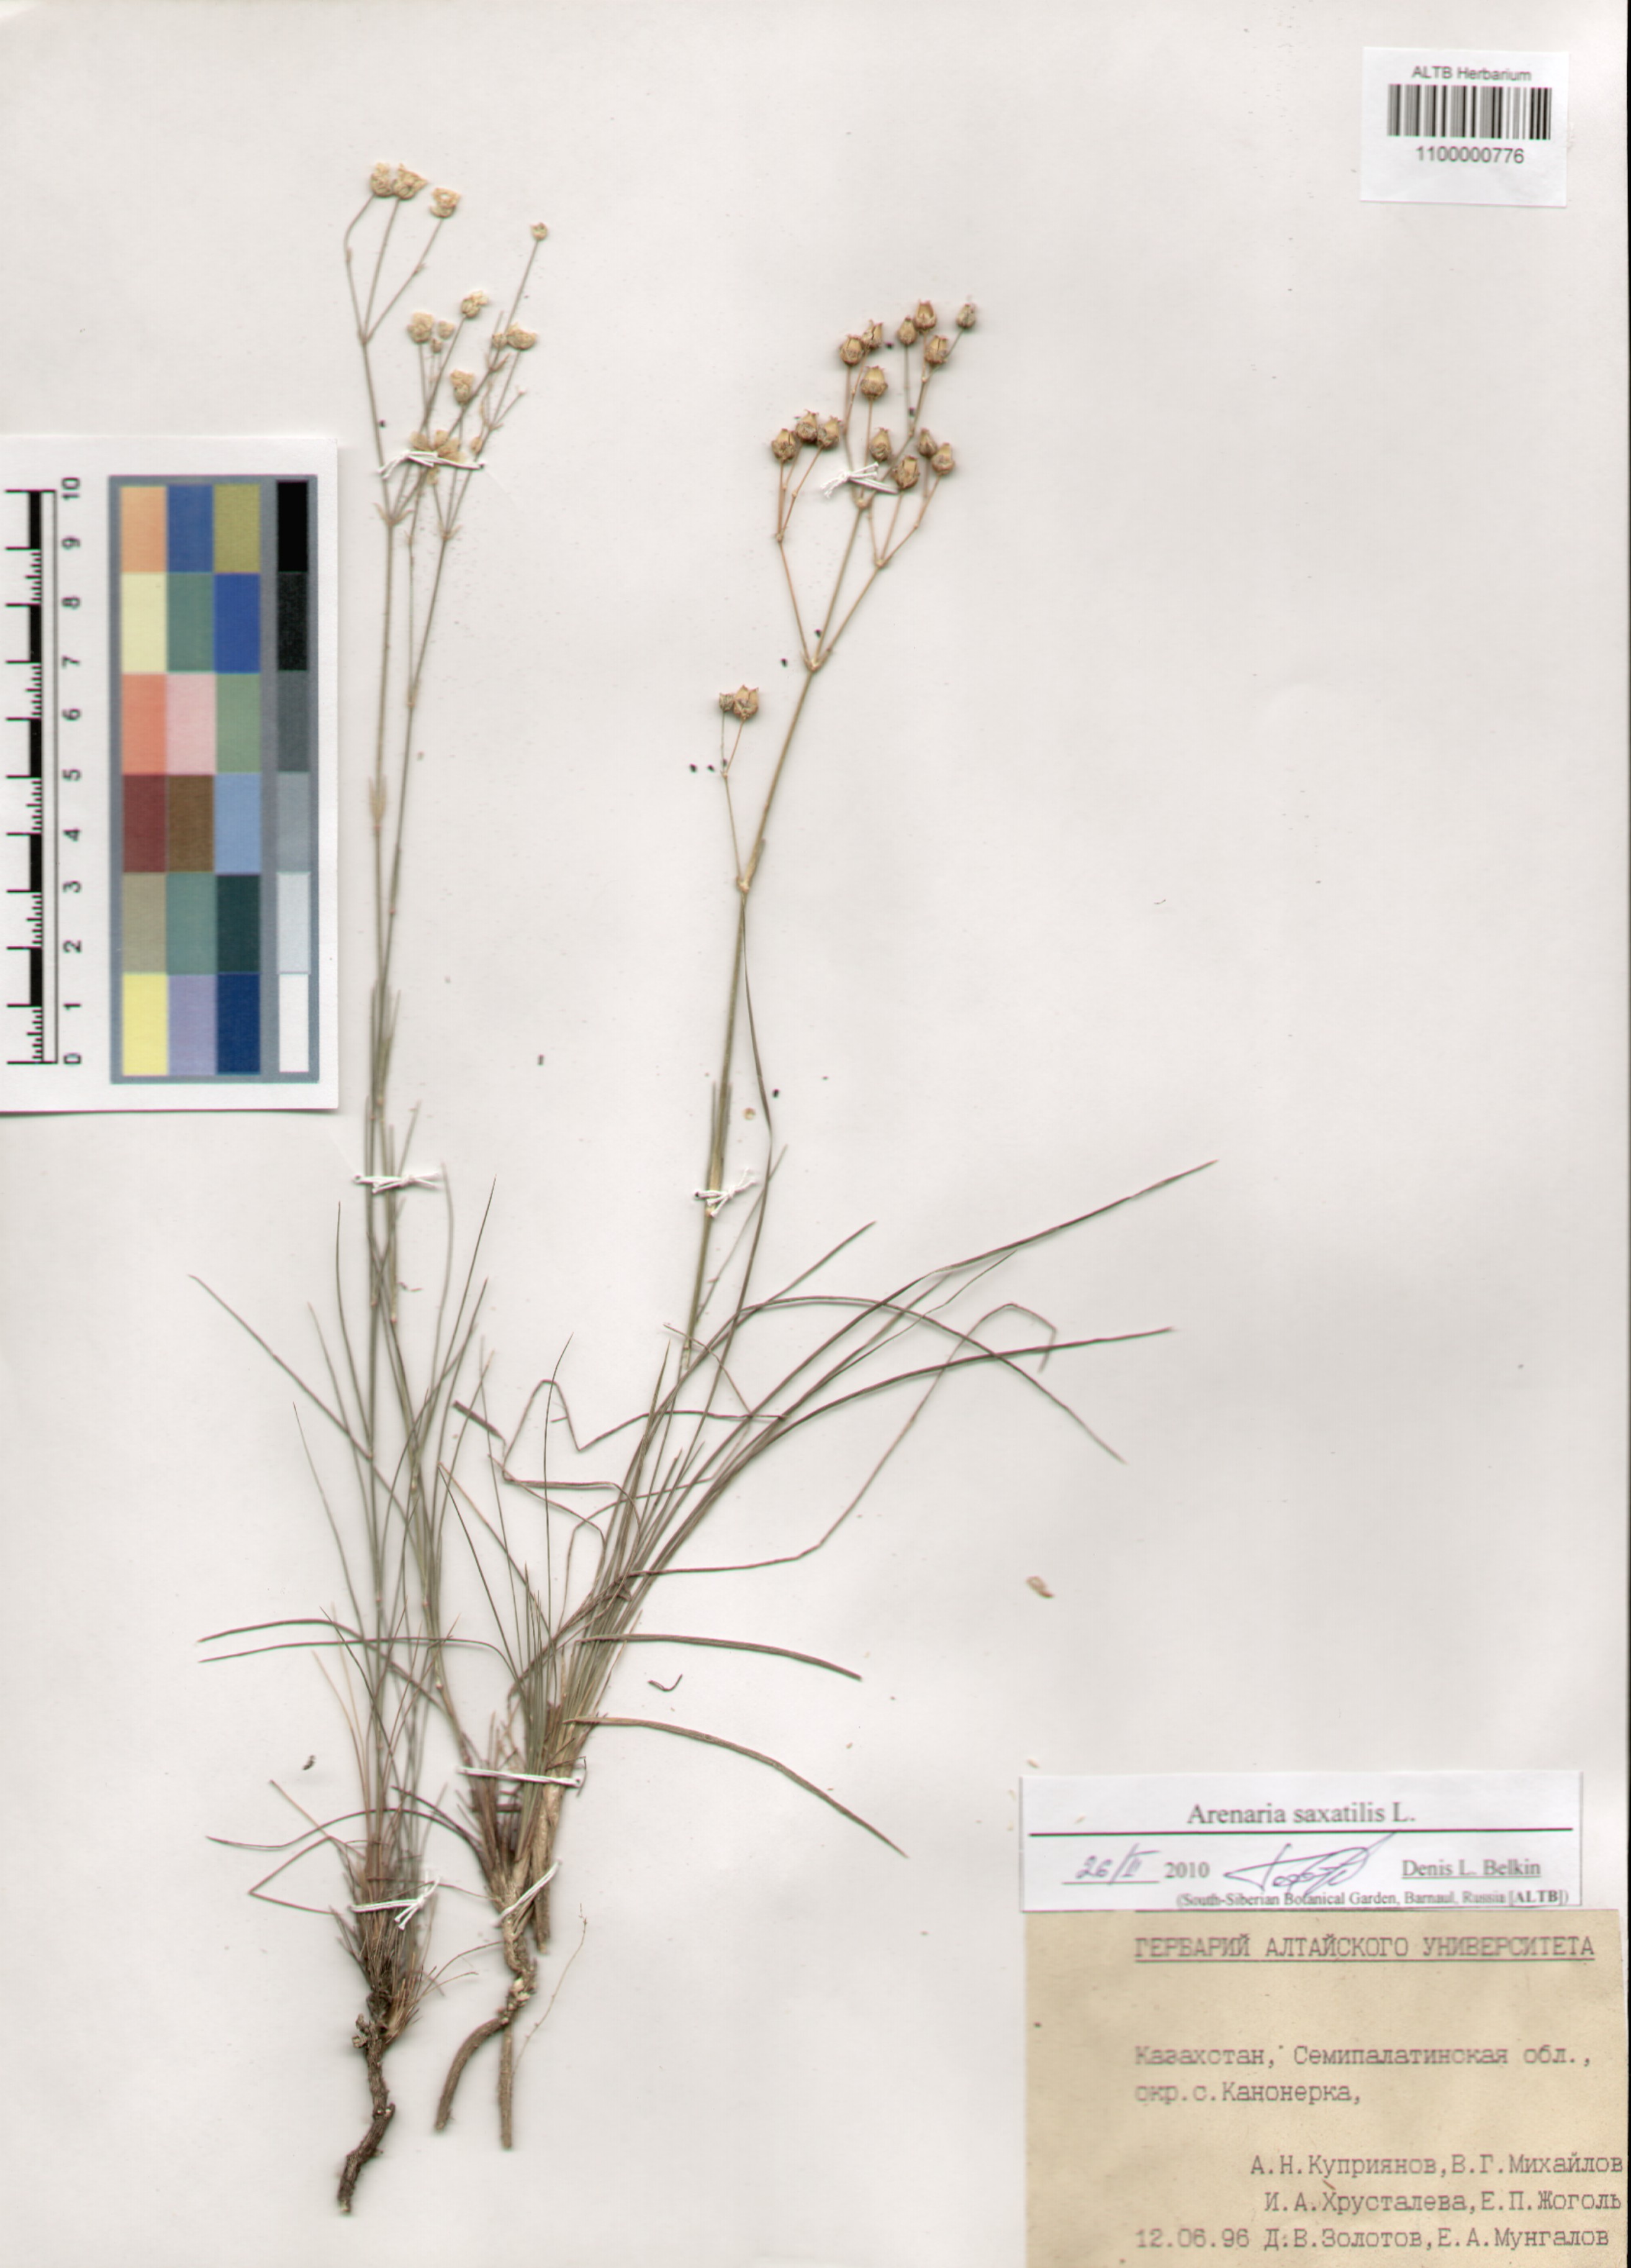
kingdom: Plantae
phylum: Tracheophyta
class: Magnoliopsida
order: Caryophyllales
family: Caryophyllaceae
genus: Eremogone
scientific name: Eremogone saxatilis
